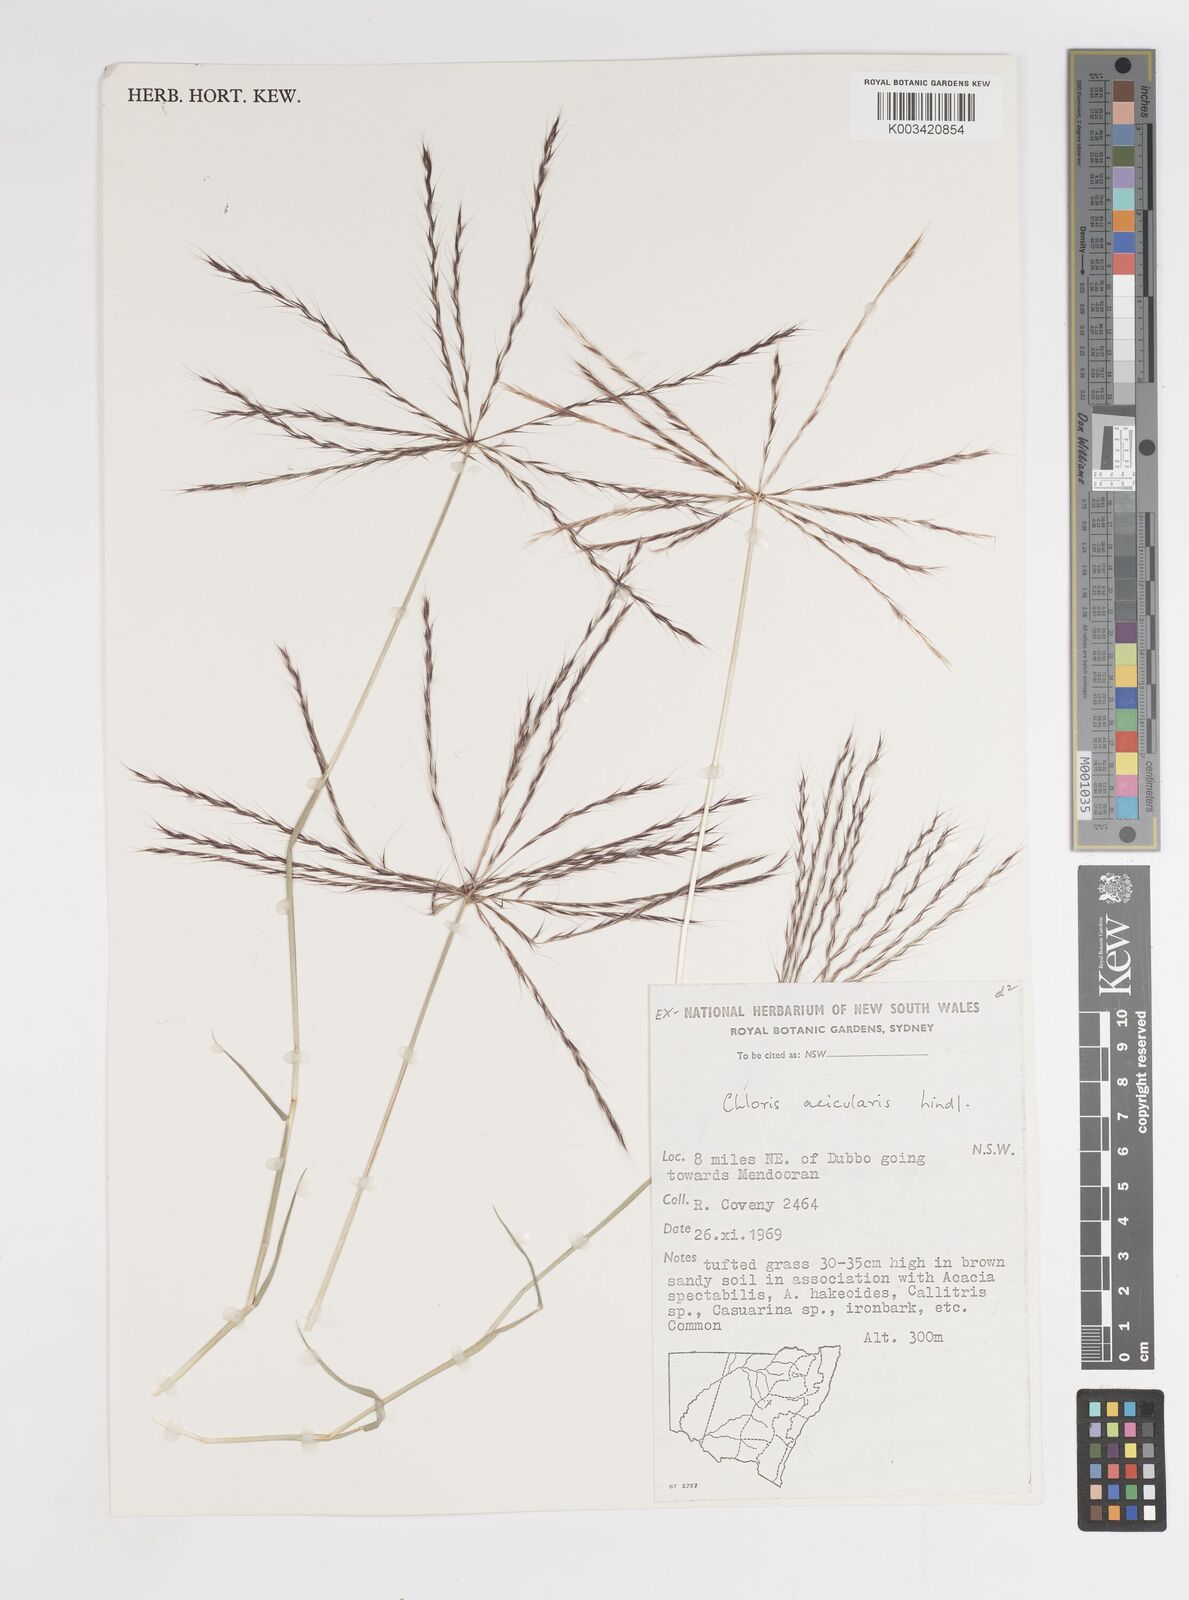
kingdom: Plantae
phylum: Tracheophyta
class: Liliopsida
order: Poales
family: Poaceae
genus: Enteropogon
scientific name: Enteropogon acicularis
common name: Curly windmill grass
